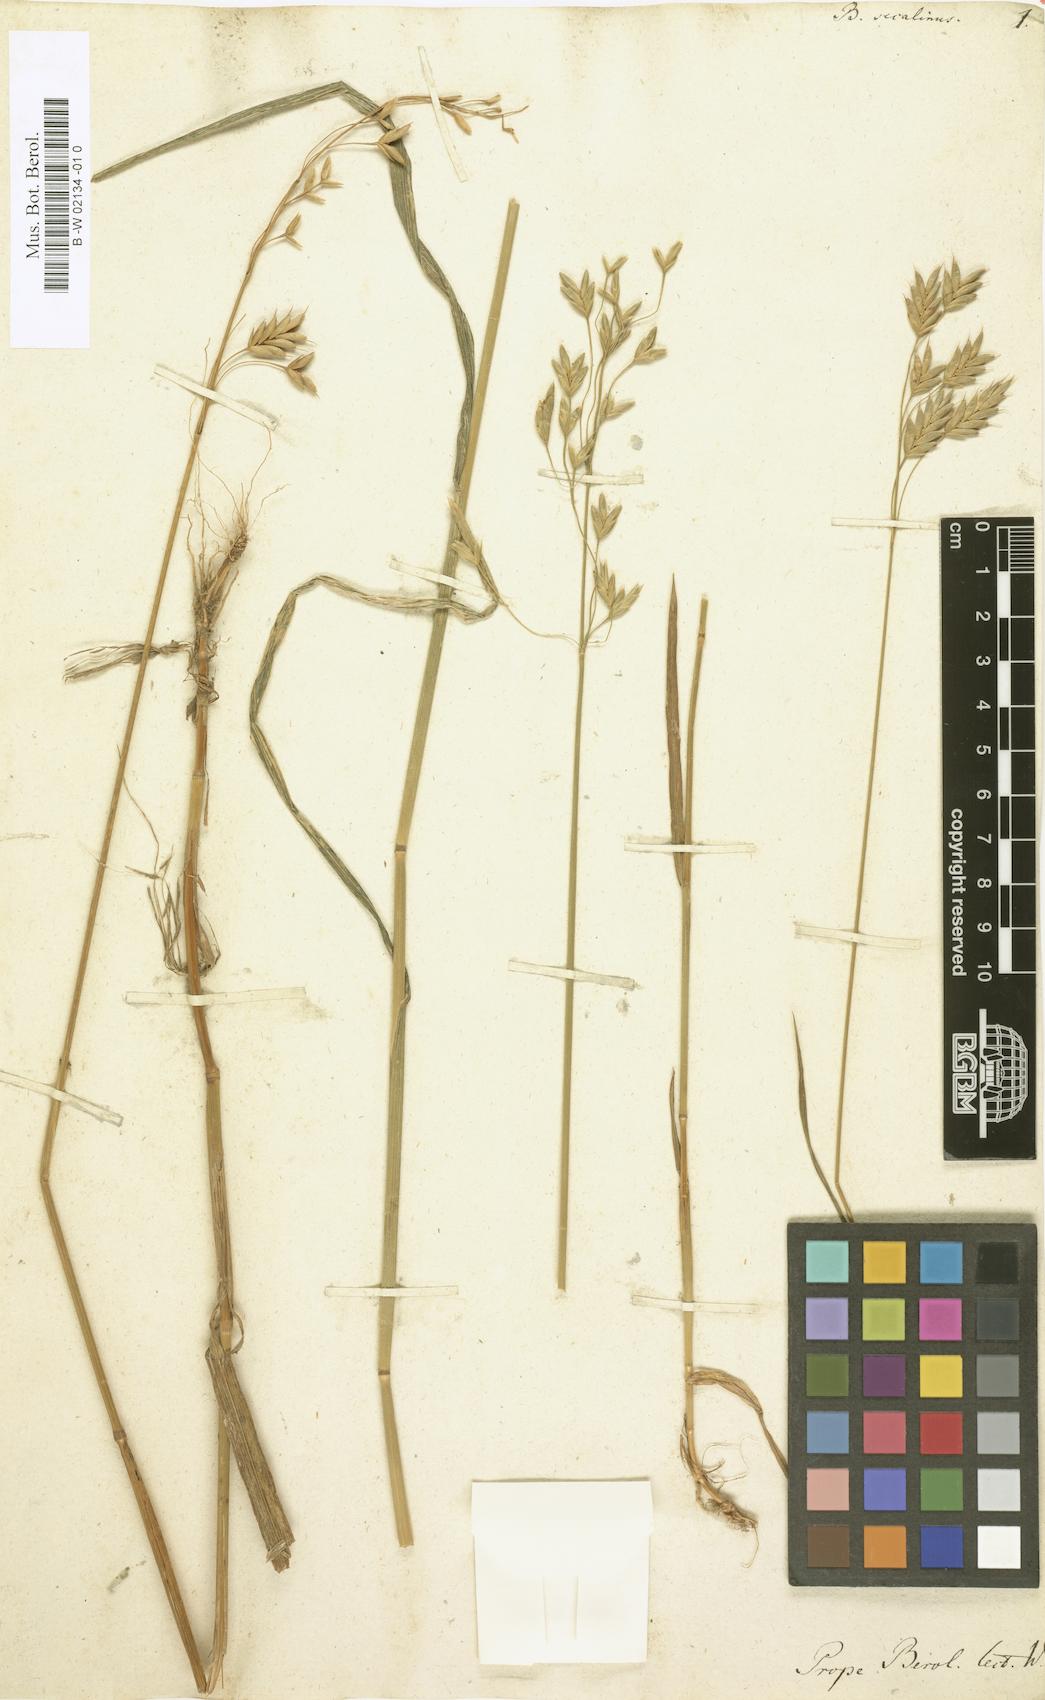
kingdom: Plantae
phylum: Tracheophyta
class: Liliopsida
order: Poales
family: Poaceae
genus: Bromus
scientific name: Bromus secalinus
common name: Rye brome
